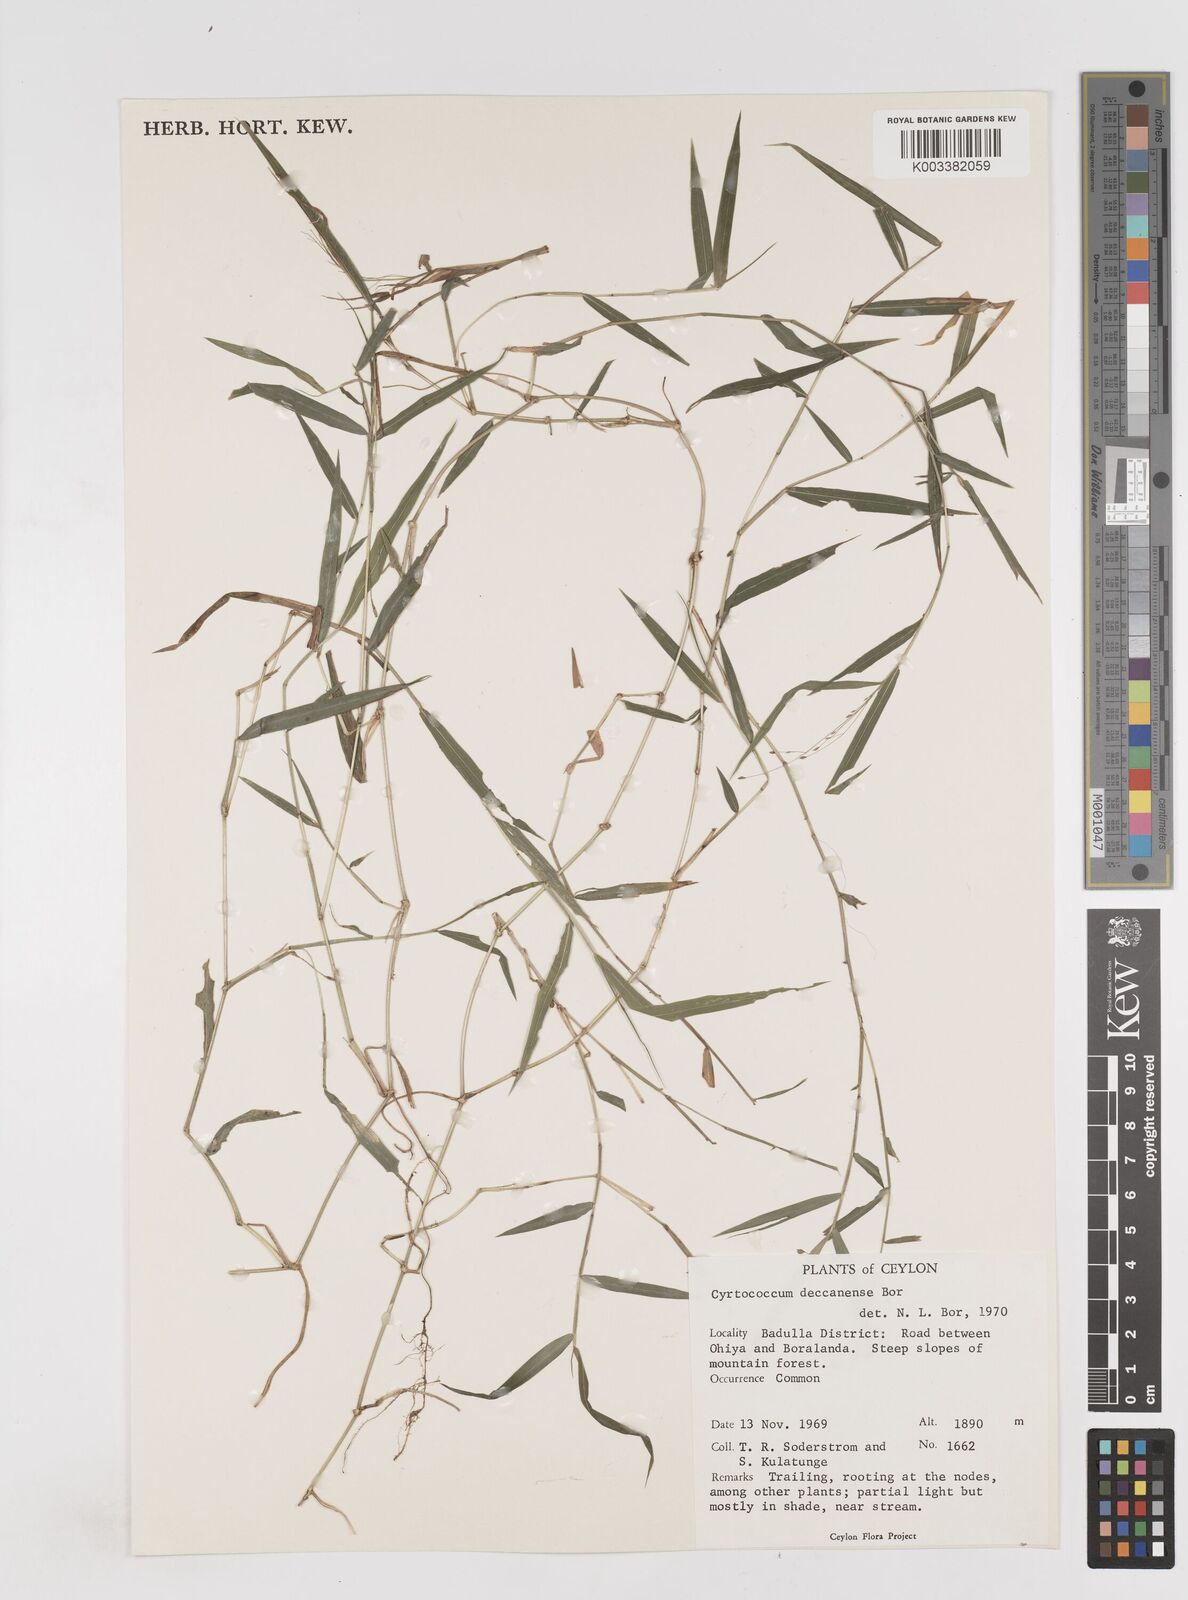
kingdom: Plantae
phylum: Tracheophyta
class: Liliopsida
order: Poales
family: Poaceae
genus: Cyrtococcum
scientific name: Cyrtococcum deccanense
